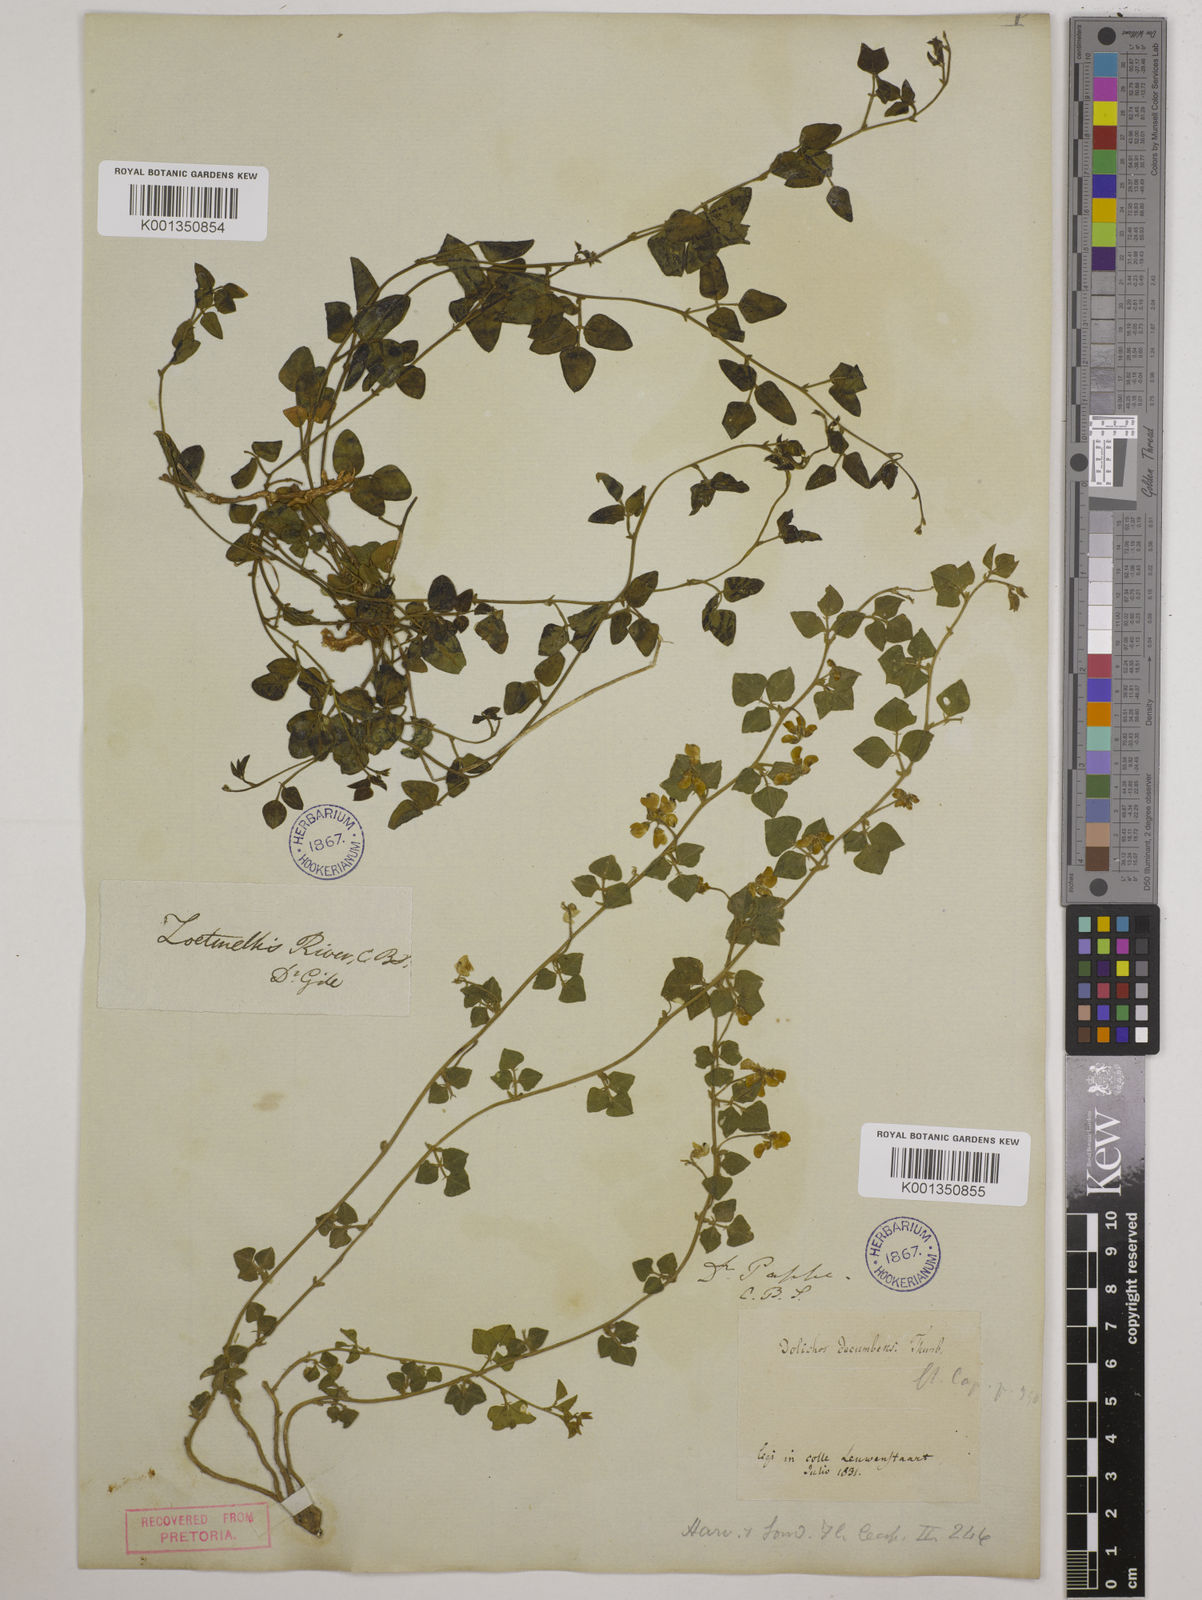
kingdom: Plantae
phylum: Tracheophyta
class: Magnoliopsida
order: Fabales
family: Fabaceae
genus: Dolichos
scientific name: Dolichos decumbens
